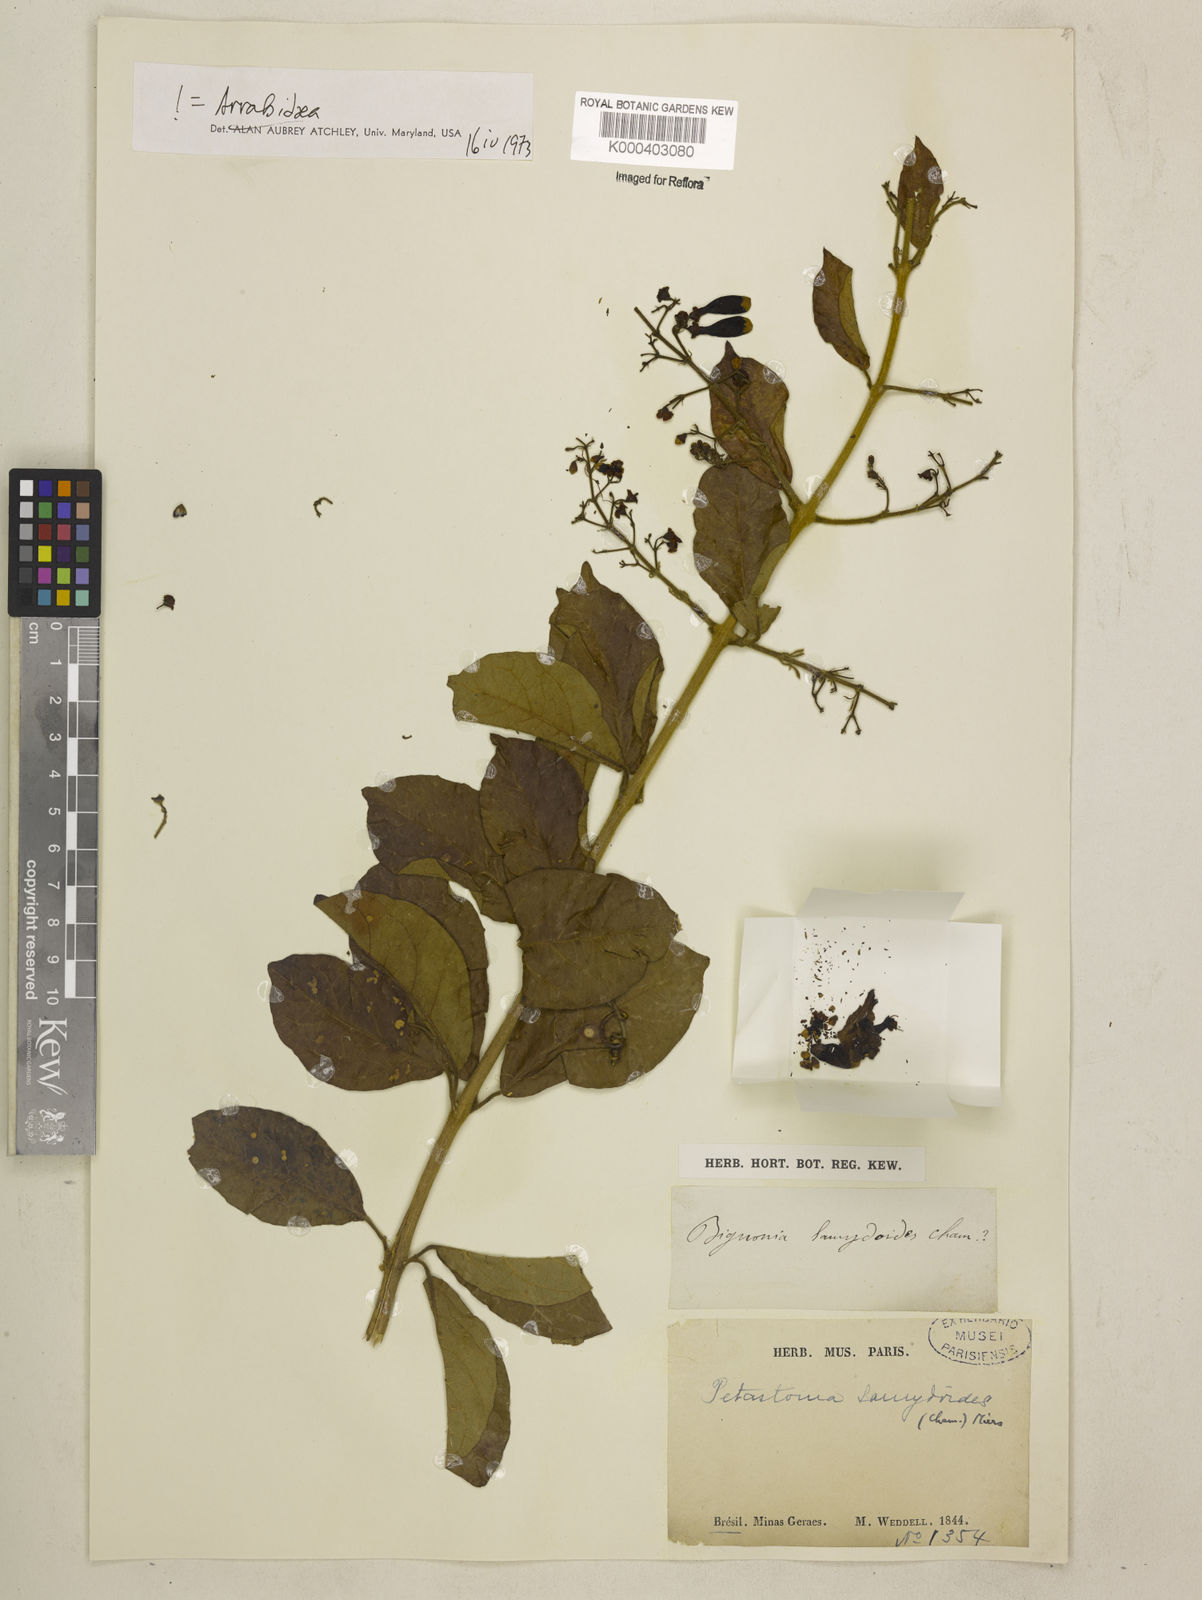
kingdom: Plantae
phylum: Tracheophyta
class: Magnoliopsida
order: Lamiales
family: Bignoniaceae
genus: Fridericia
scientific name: Fridericia samydoides
